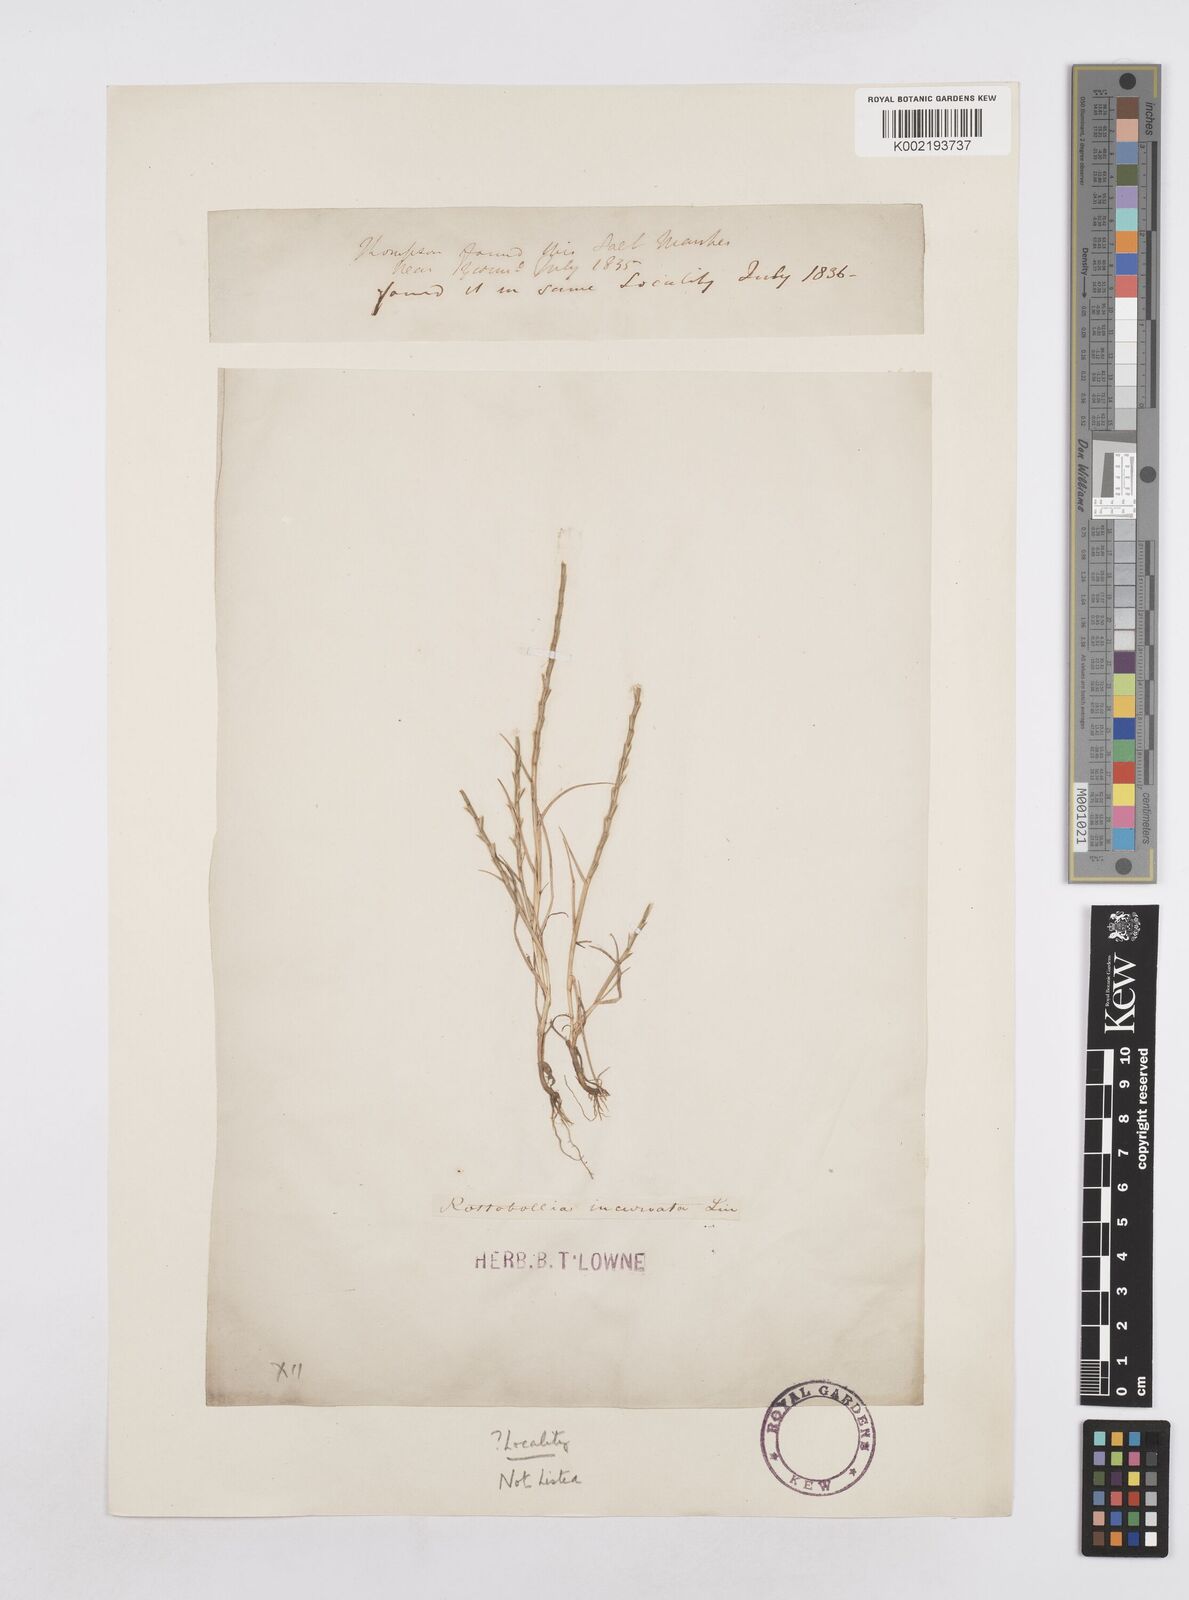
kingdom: Plantae
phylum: Tracheophyta
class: Liliopsida
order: Poales
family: Poaceae
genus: Parapholis
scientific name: Parapholis strigosa
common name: Hard-grass
